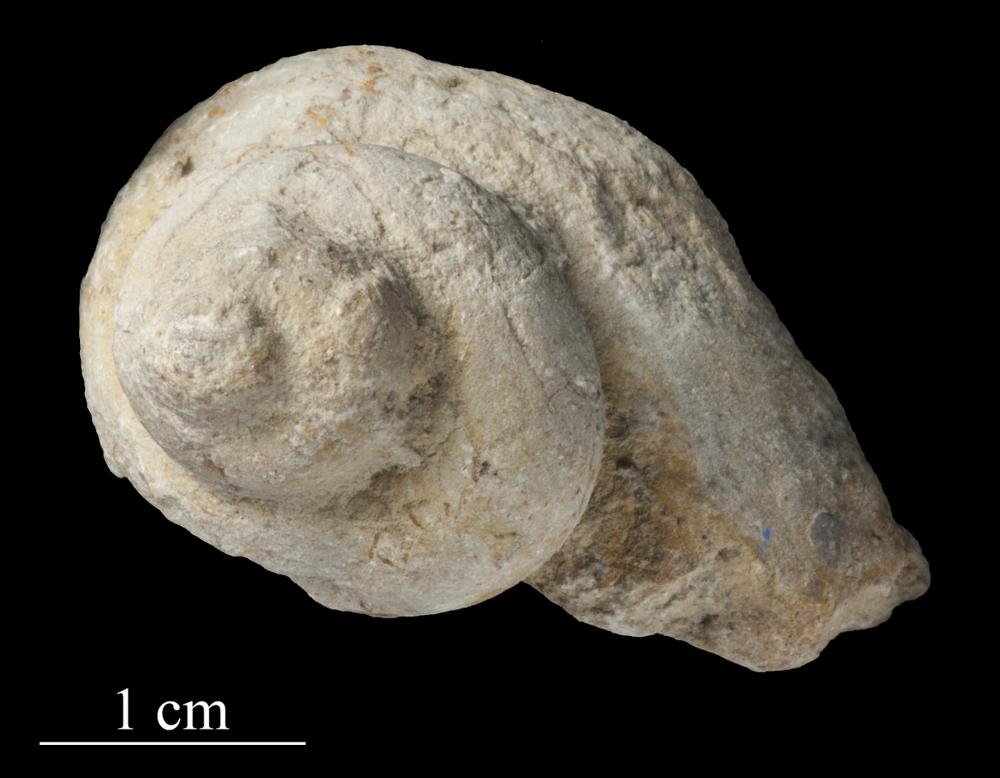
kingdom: Animalia
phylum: Mollusca
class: Gastropoda
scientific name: Gastropoda
